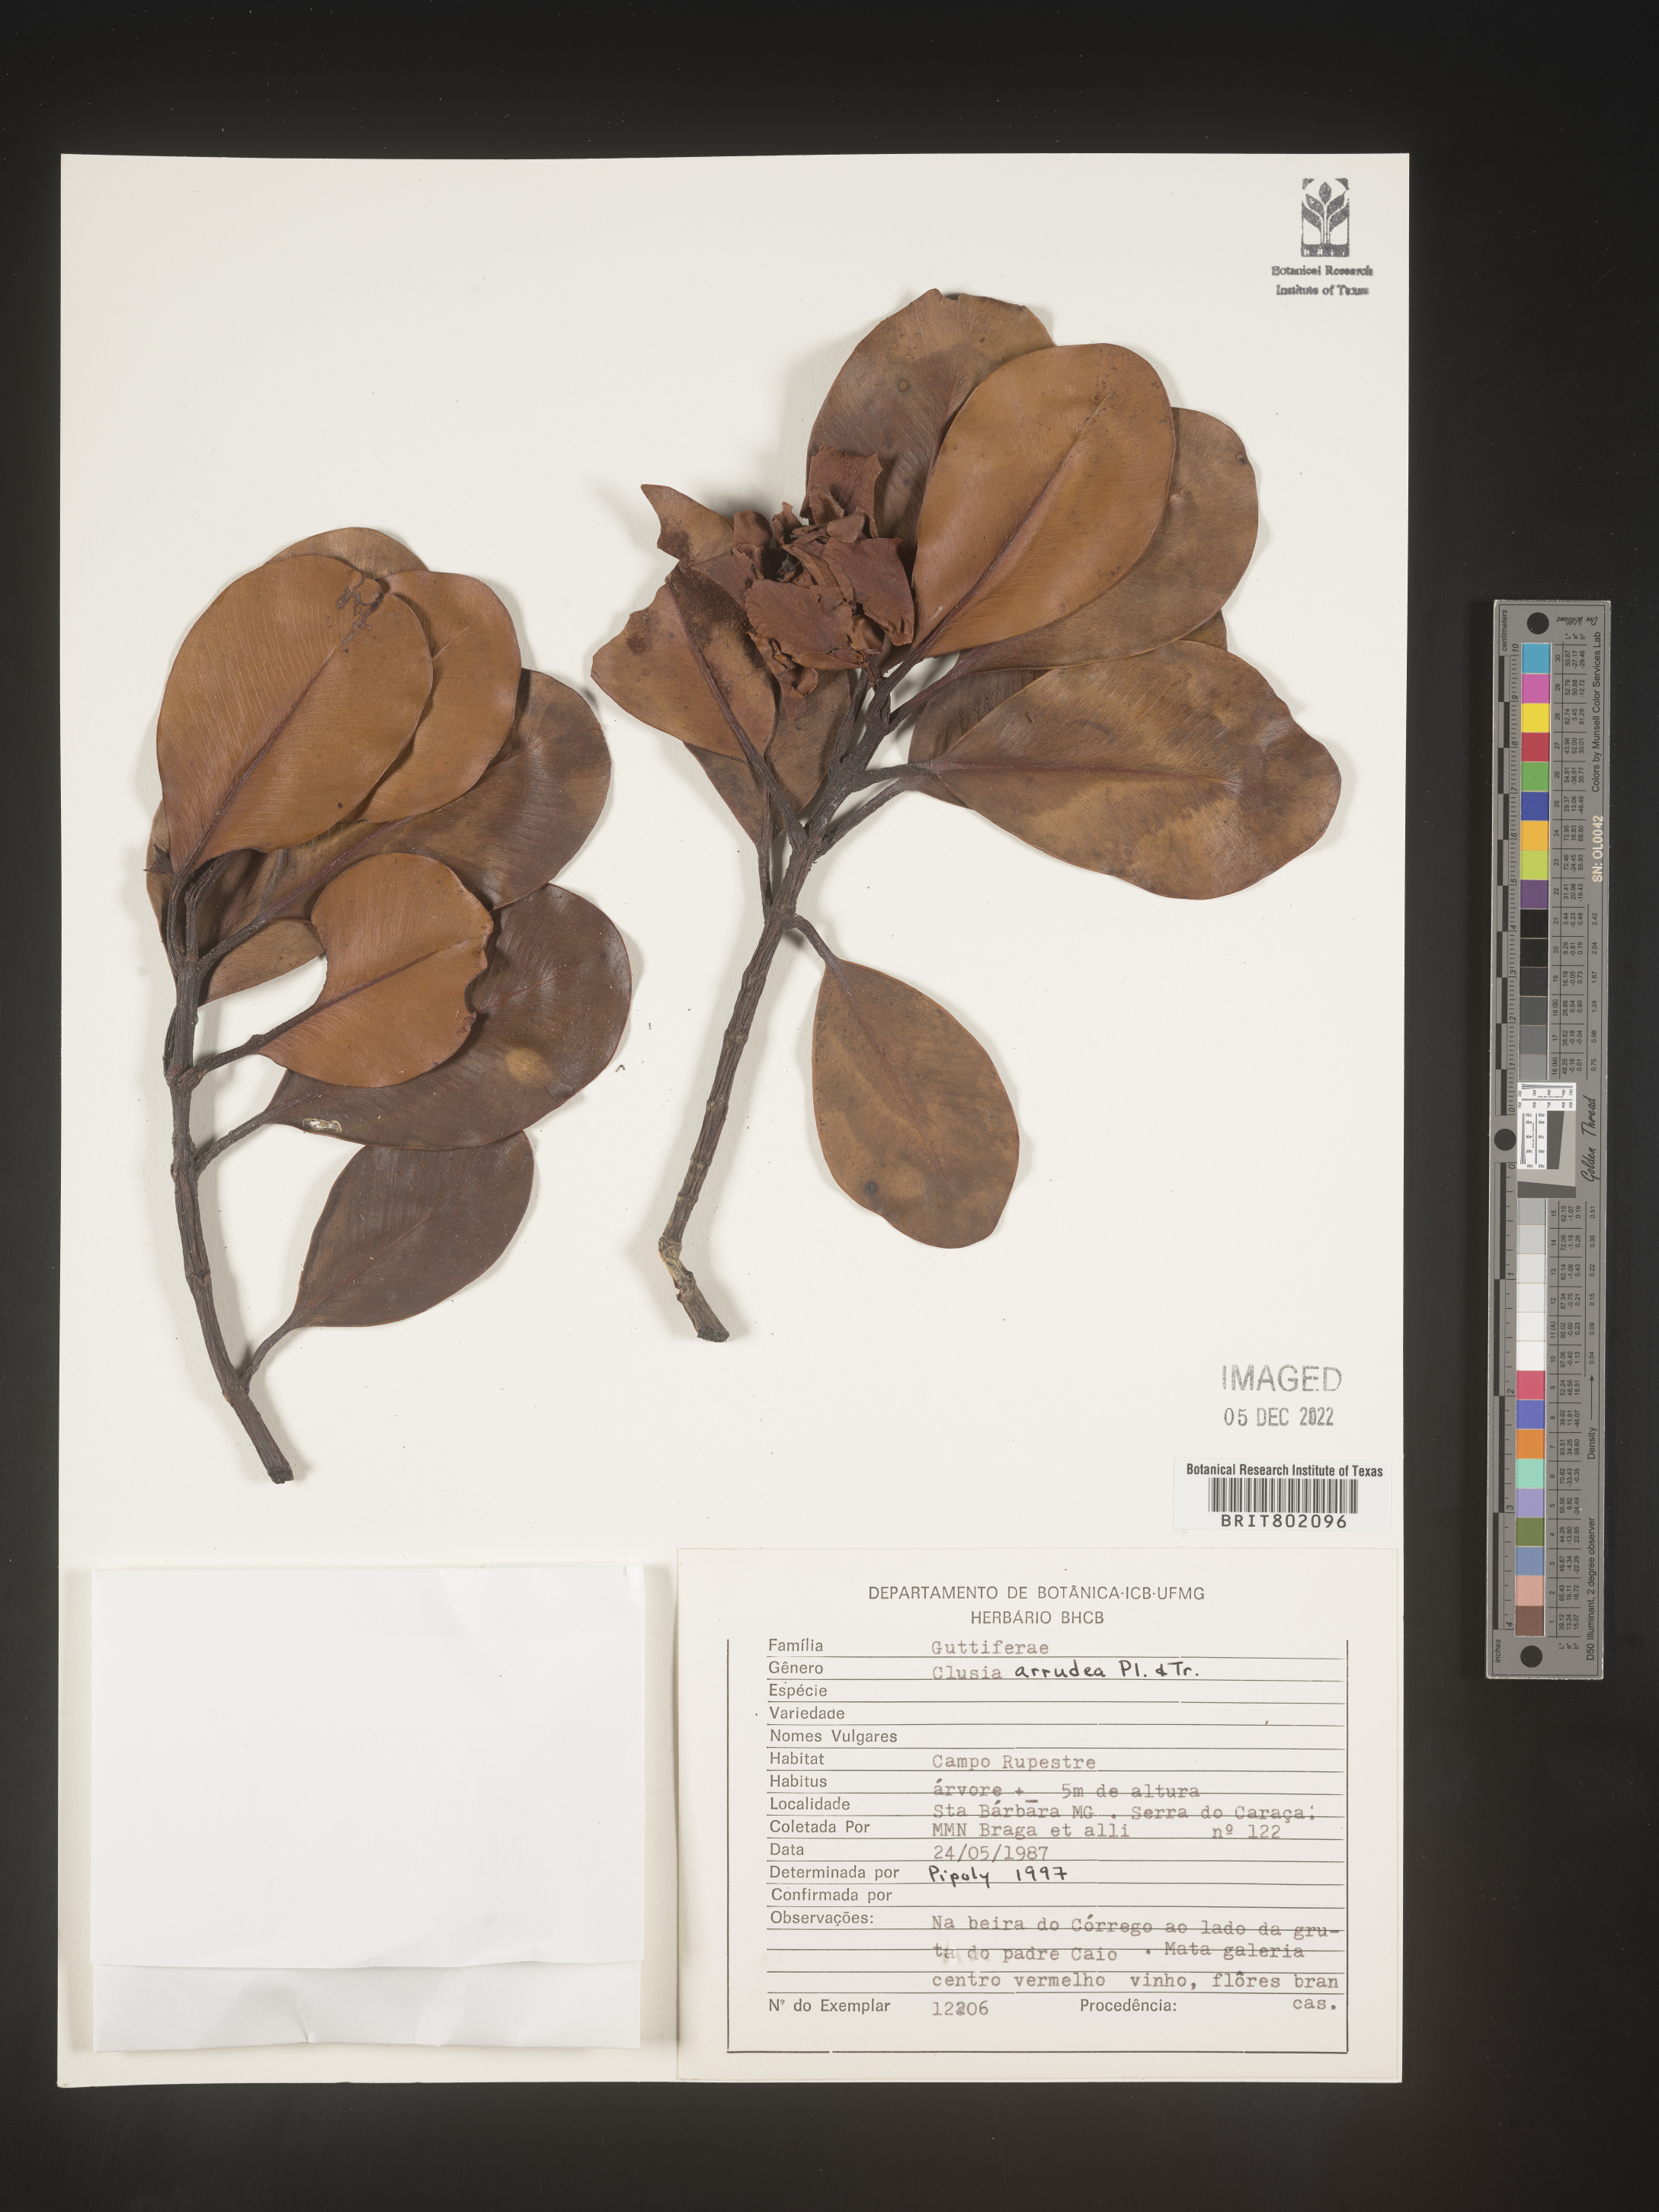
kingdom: Plantae
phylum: Tracheophyta
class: Magnoliopsida
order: Malpighiales
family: Clusiaceae
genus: Clusia
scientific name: Clusia mexiae
